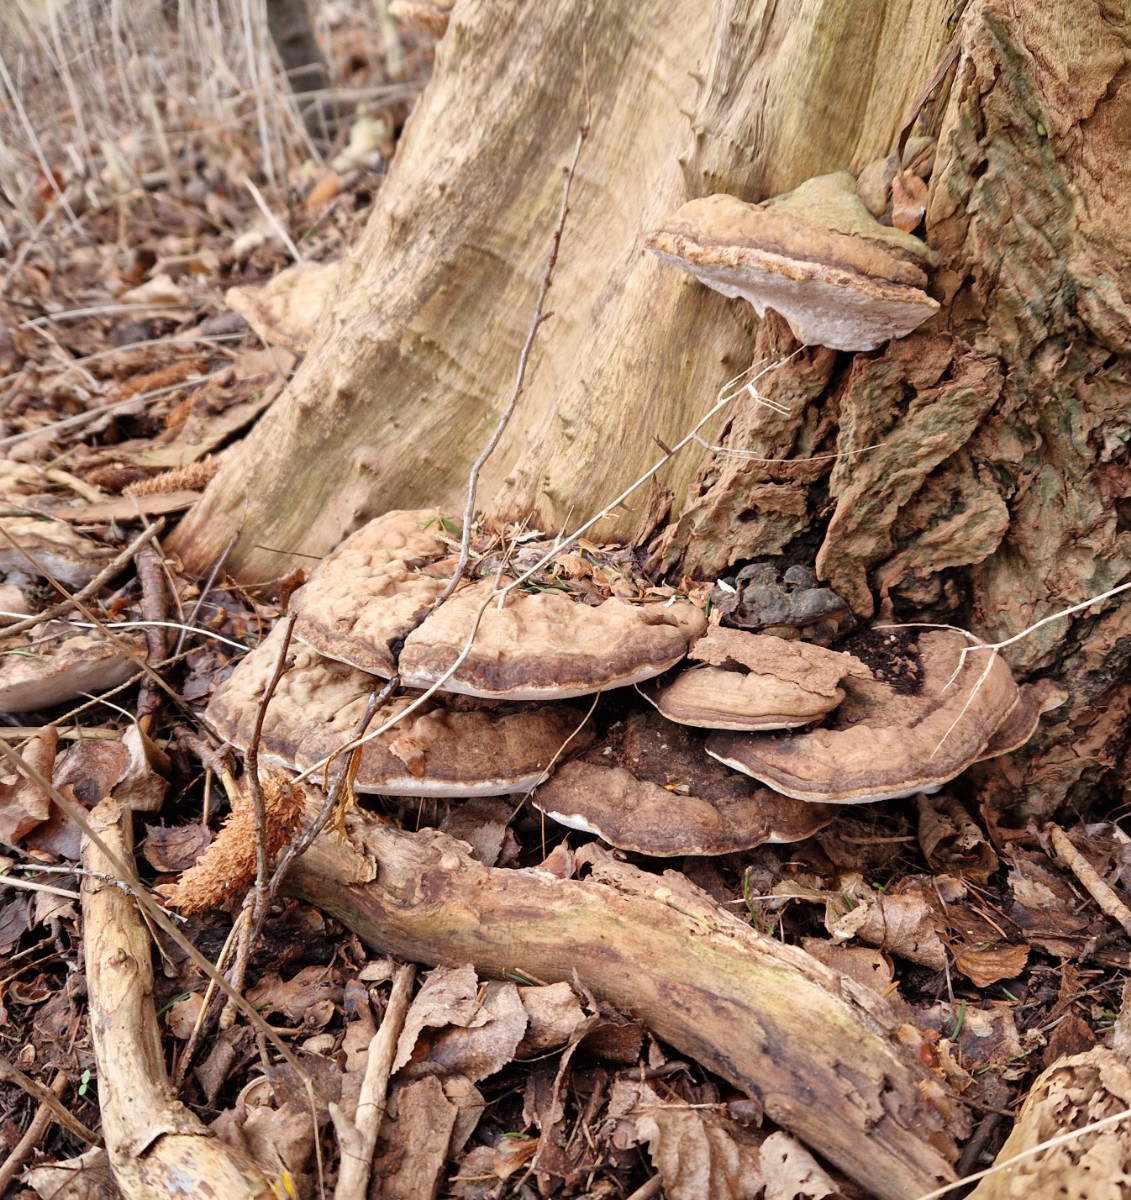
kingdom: Fungi
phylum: Basidiomycota
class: Agaricomycetes
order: Polyporales
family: Polyporaceae
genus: Ganoderma
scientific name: Ganoderma applanatum
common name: flad lakporesvamp
